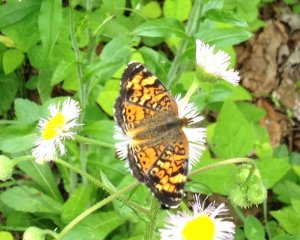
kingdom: Animalia
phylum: Arthropoda
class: Insecta
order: Lepidoptera
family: Nymphalidae
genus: Phyciodes
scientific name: Phyciodes tharos
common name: Northern Crescent
